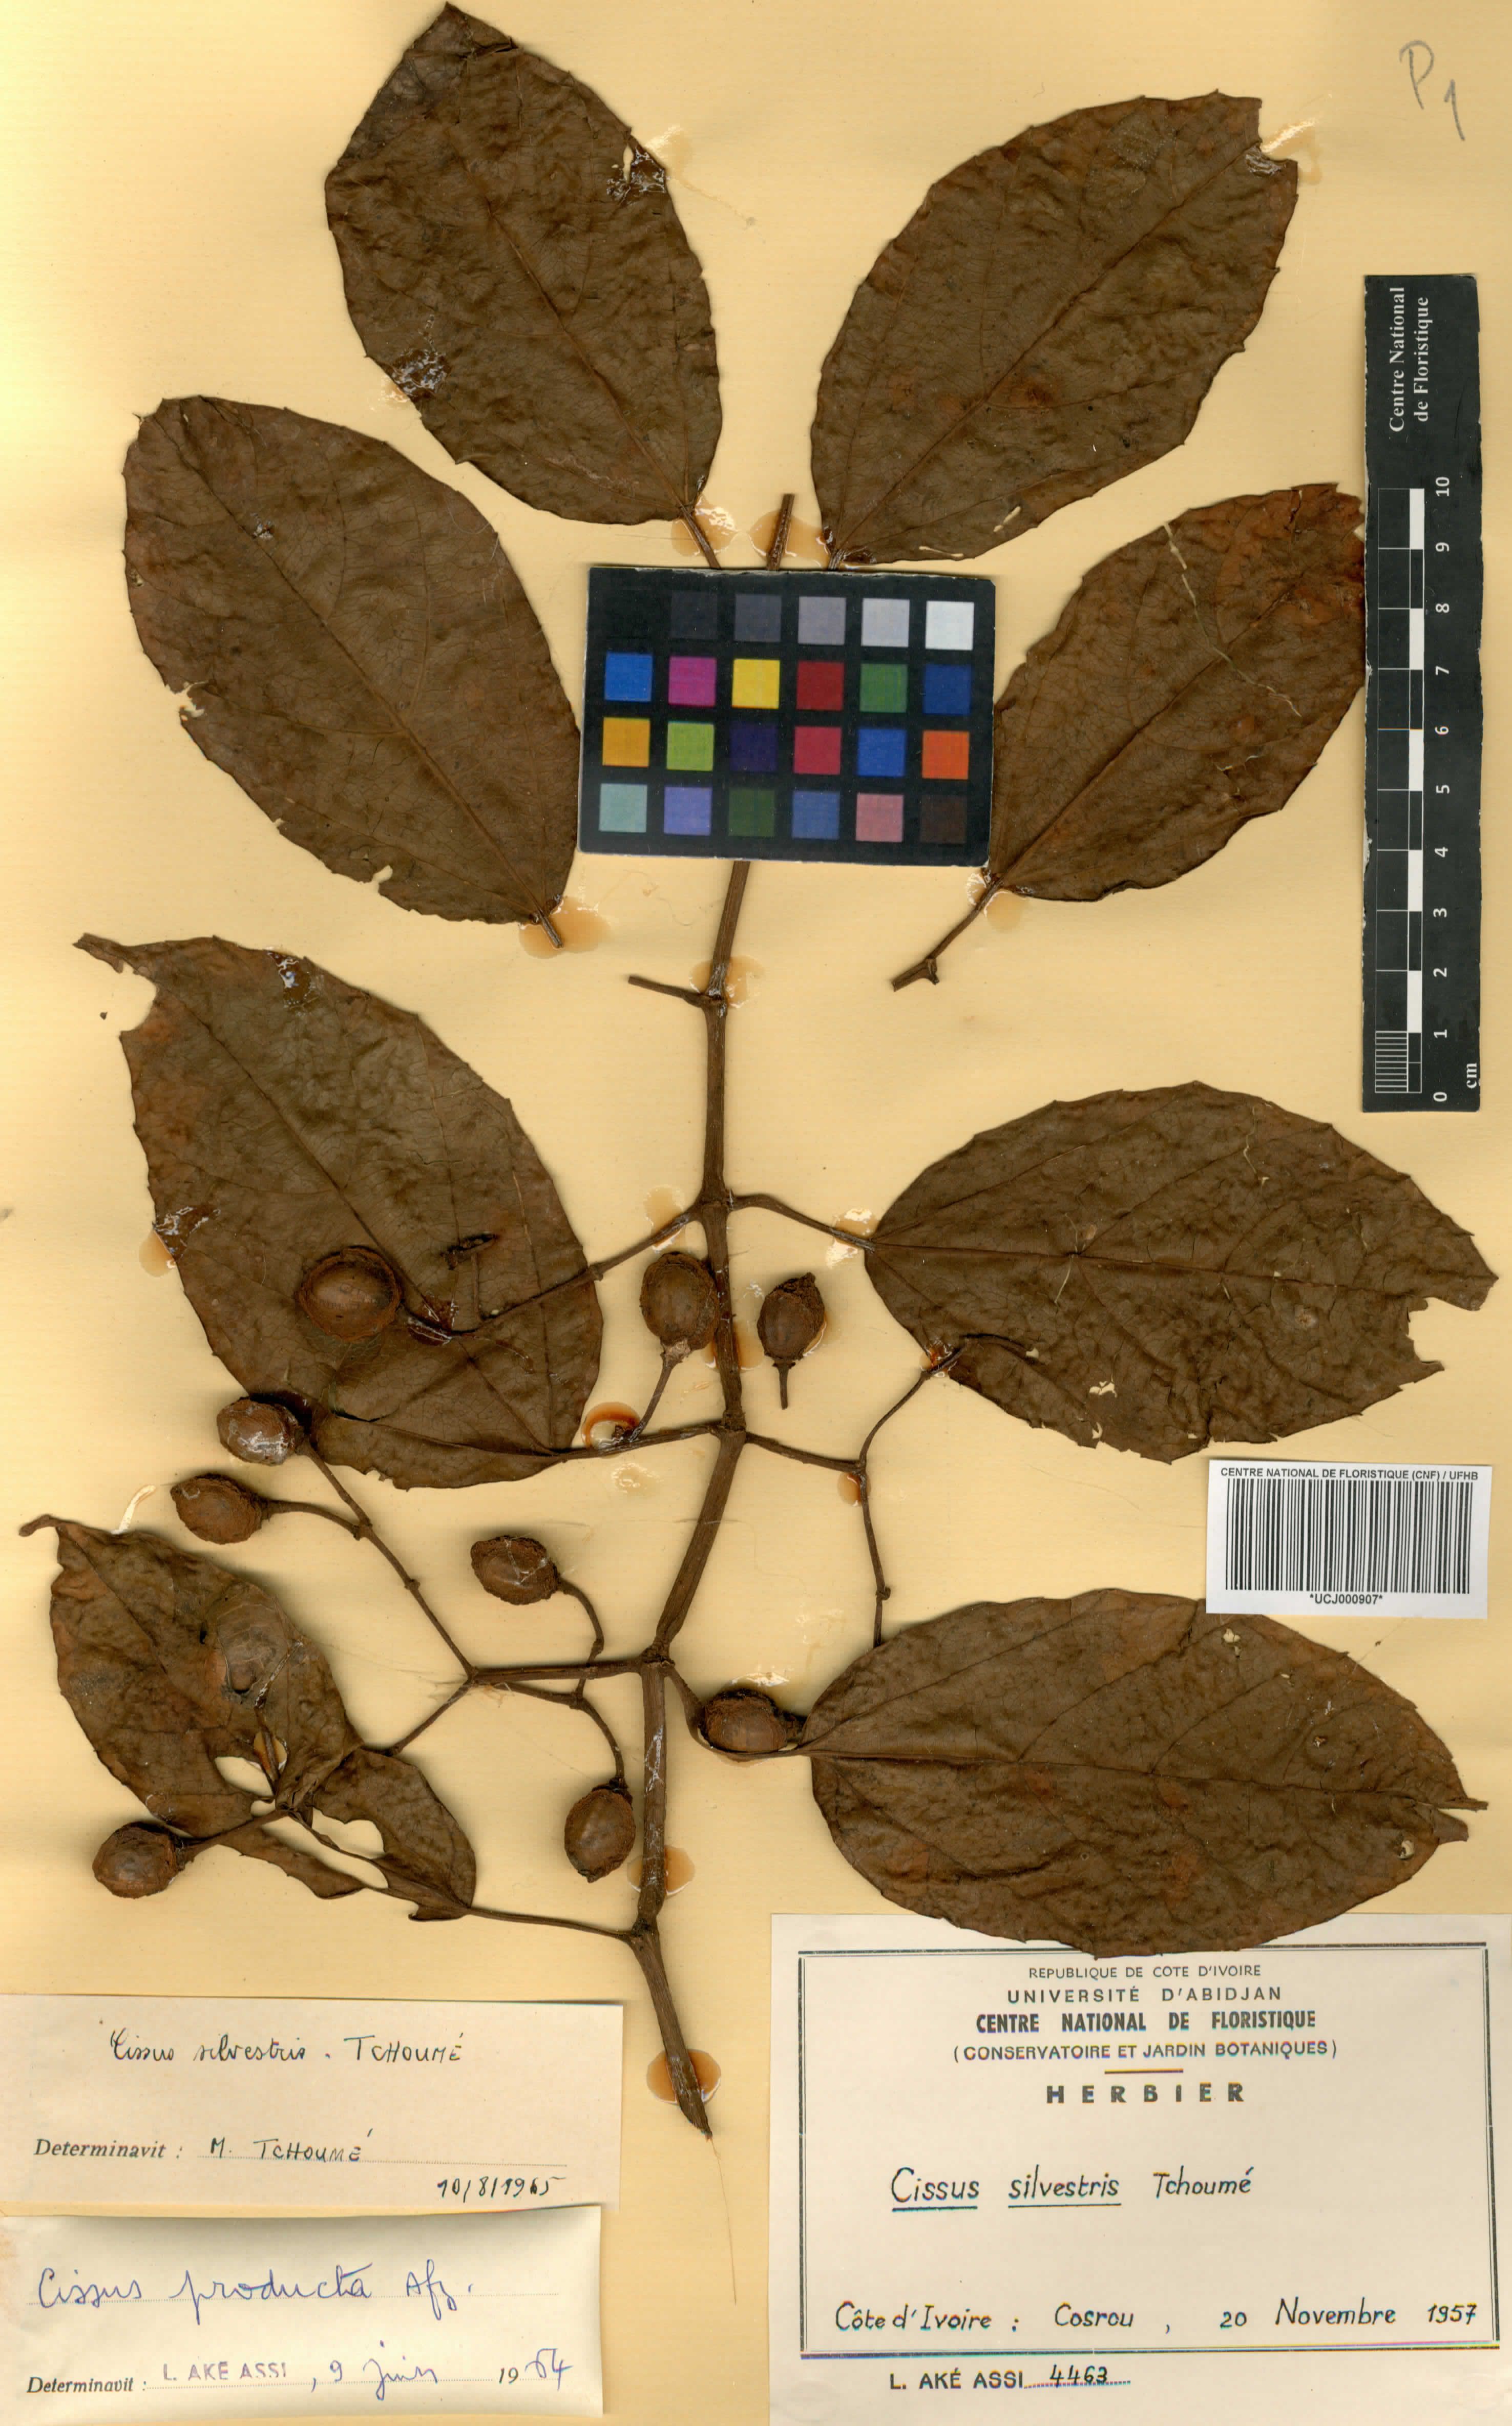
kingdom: Plantae
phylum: Tracheophyta
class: Magnoliopsida
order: Vitales
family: Vitaceae
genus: Cissus
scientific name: Cissus silvestris
